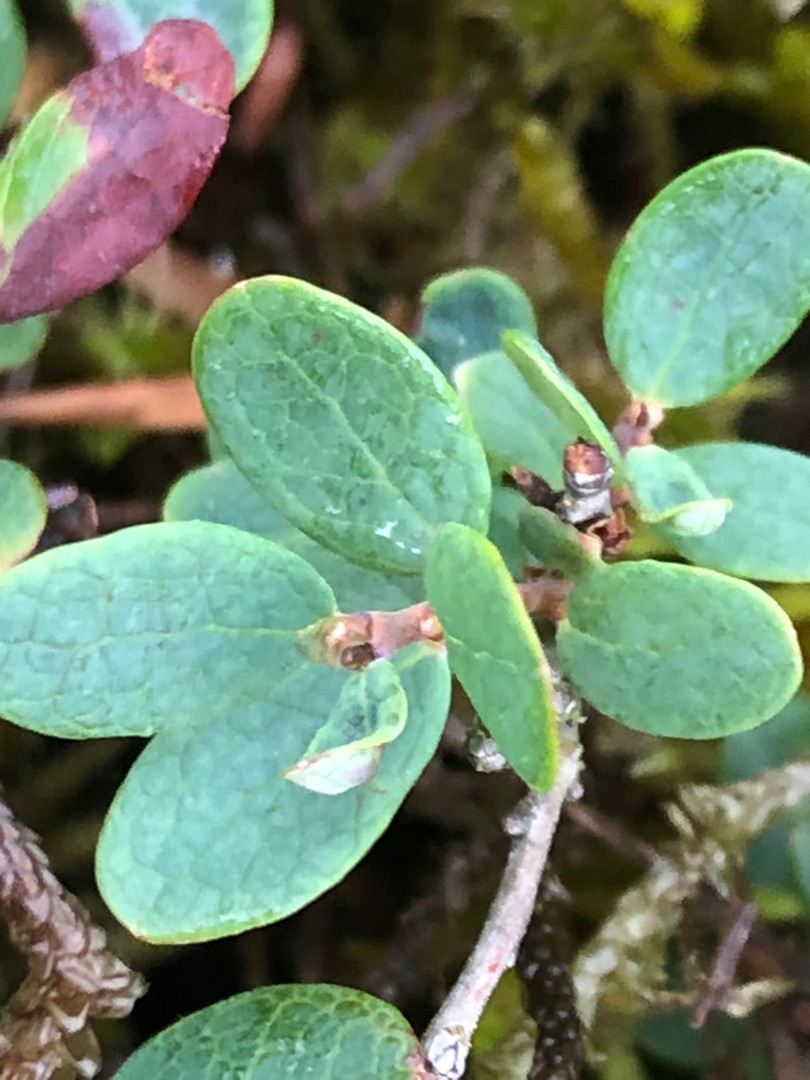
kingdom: Plantae
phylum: Tracheophyta
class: Magnoliopsida
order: Ericales
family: Ericaceae
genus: Vaccinium
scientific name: Vaccinium uliginosum
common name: Mose-bølle
